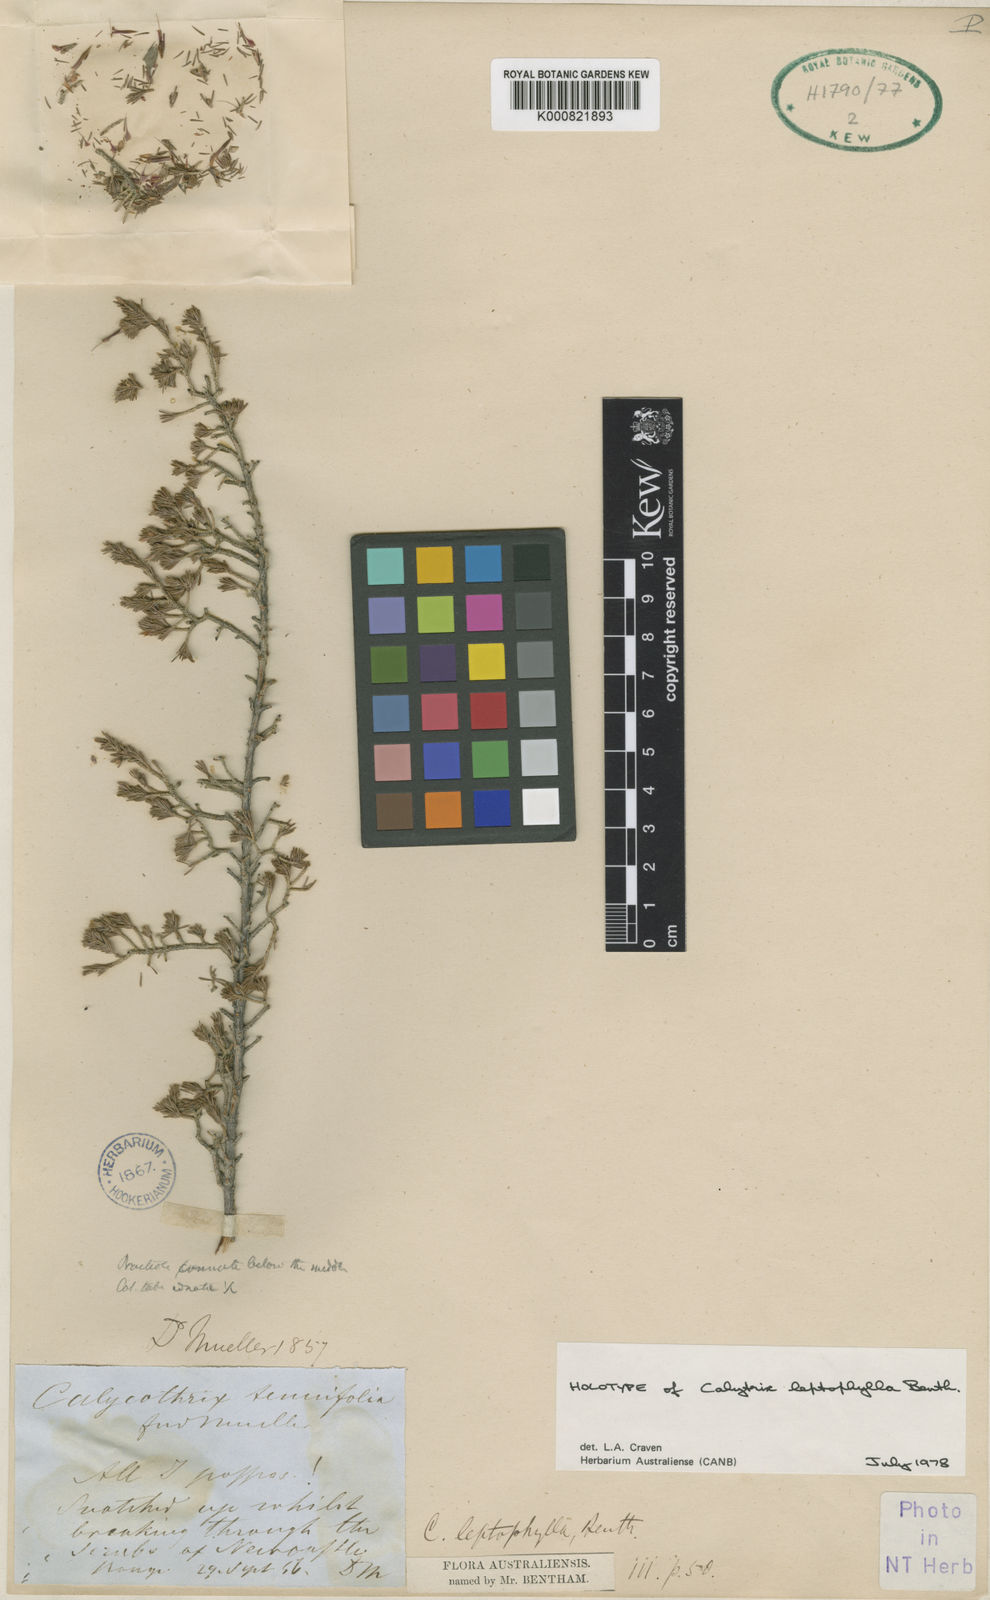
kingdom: Plantae
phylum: Tracheophyta
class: Magnoliopsida
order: Myrtales
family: Myrtaceae
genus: Calytrix
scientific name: Calytrix leptophylla
